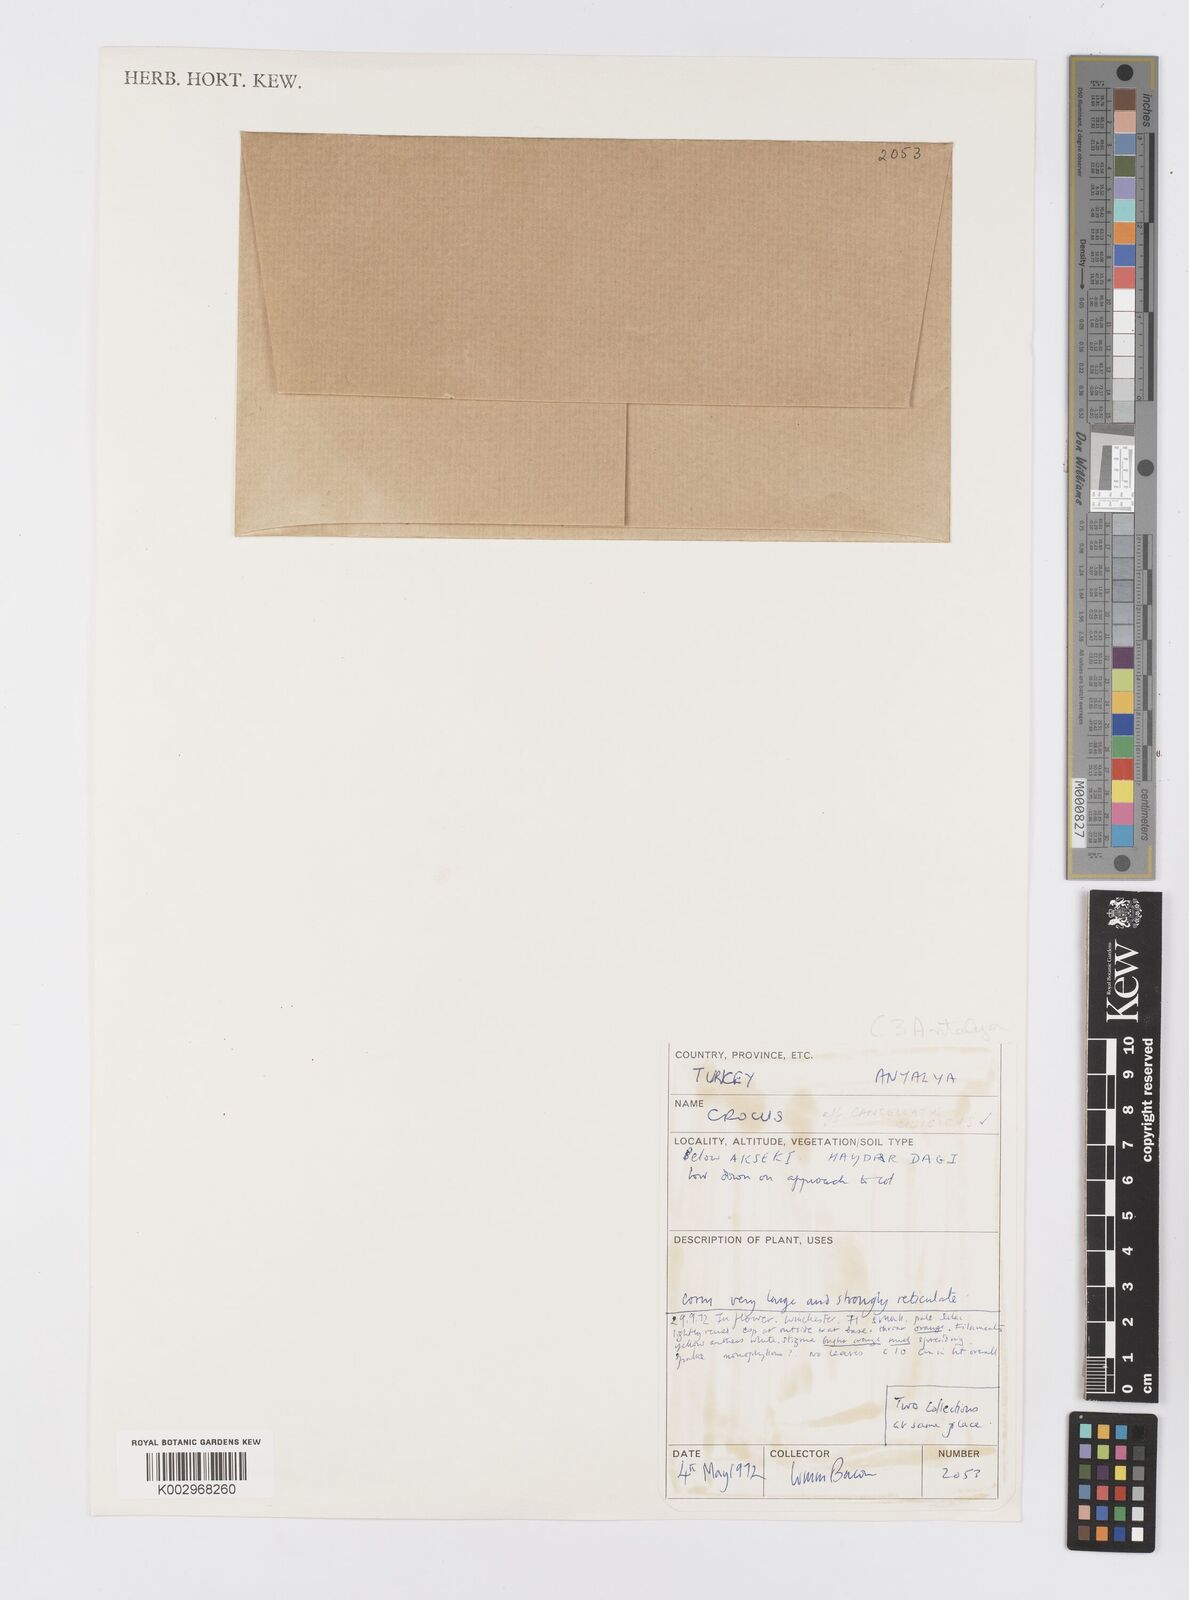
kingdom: Plantae
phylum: Tracheophyta
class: Liliopsida
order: Asparagales
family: Iridaceae
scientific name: Iridaceae
